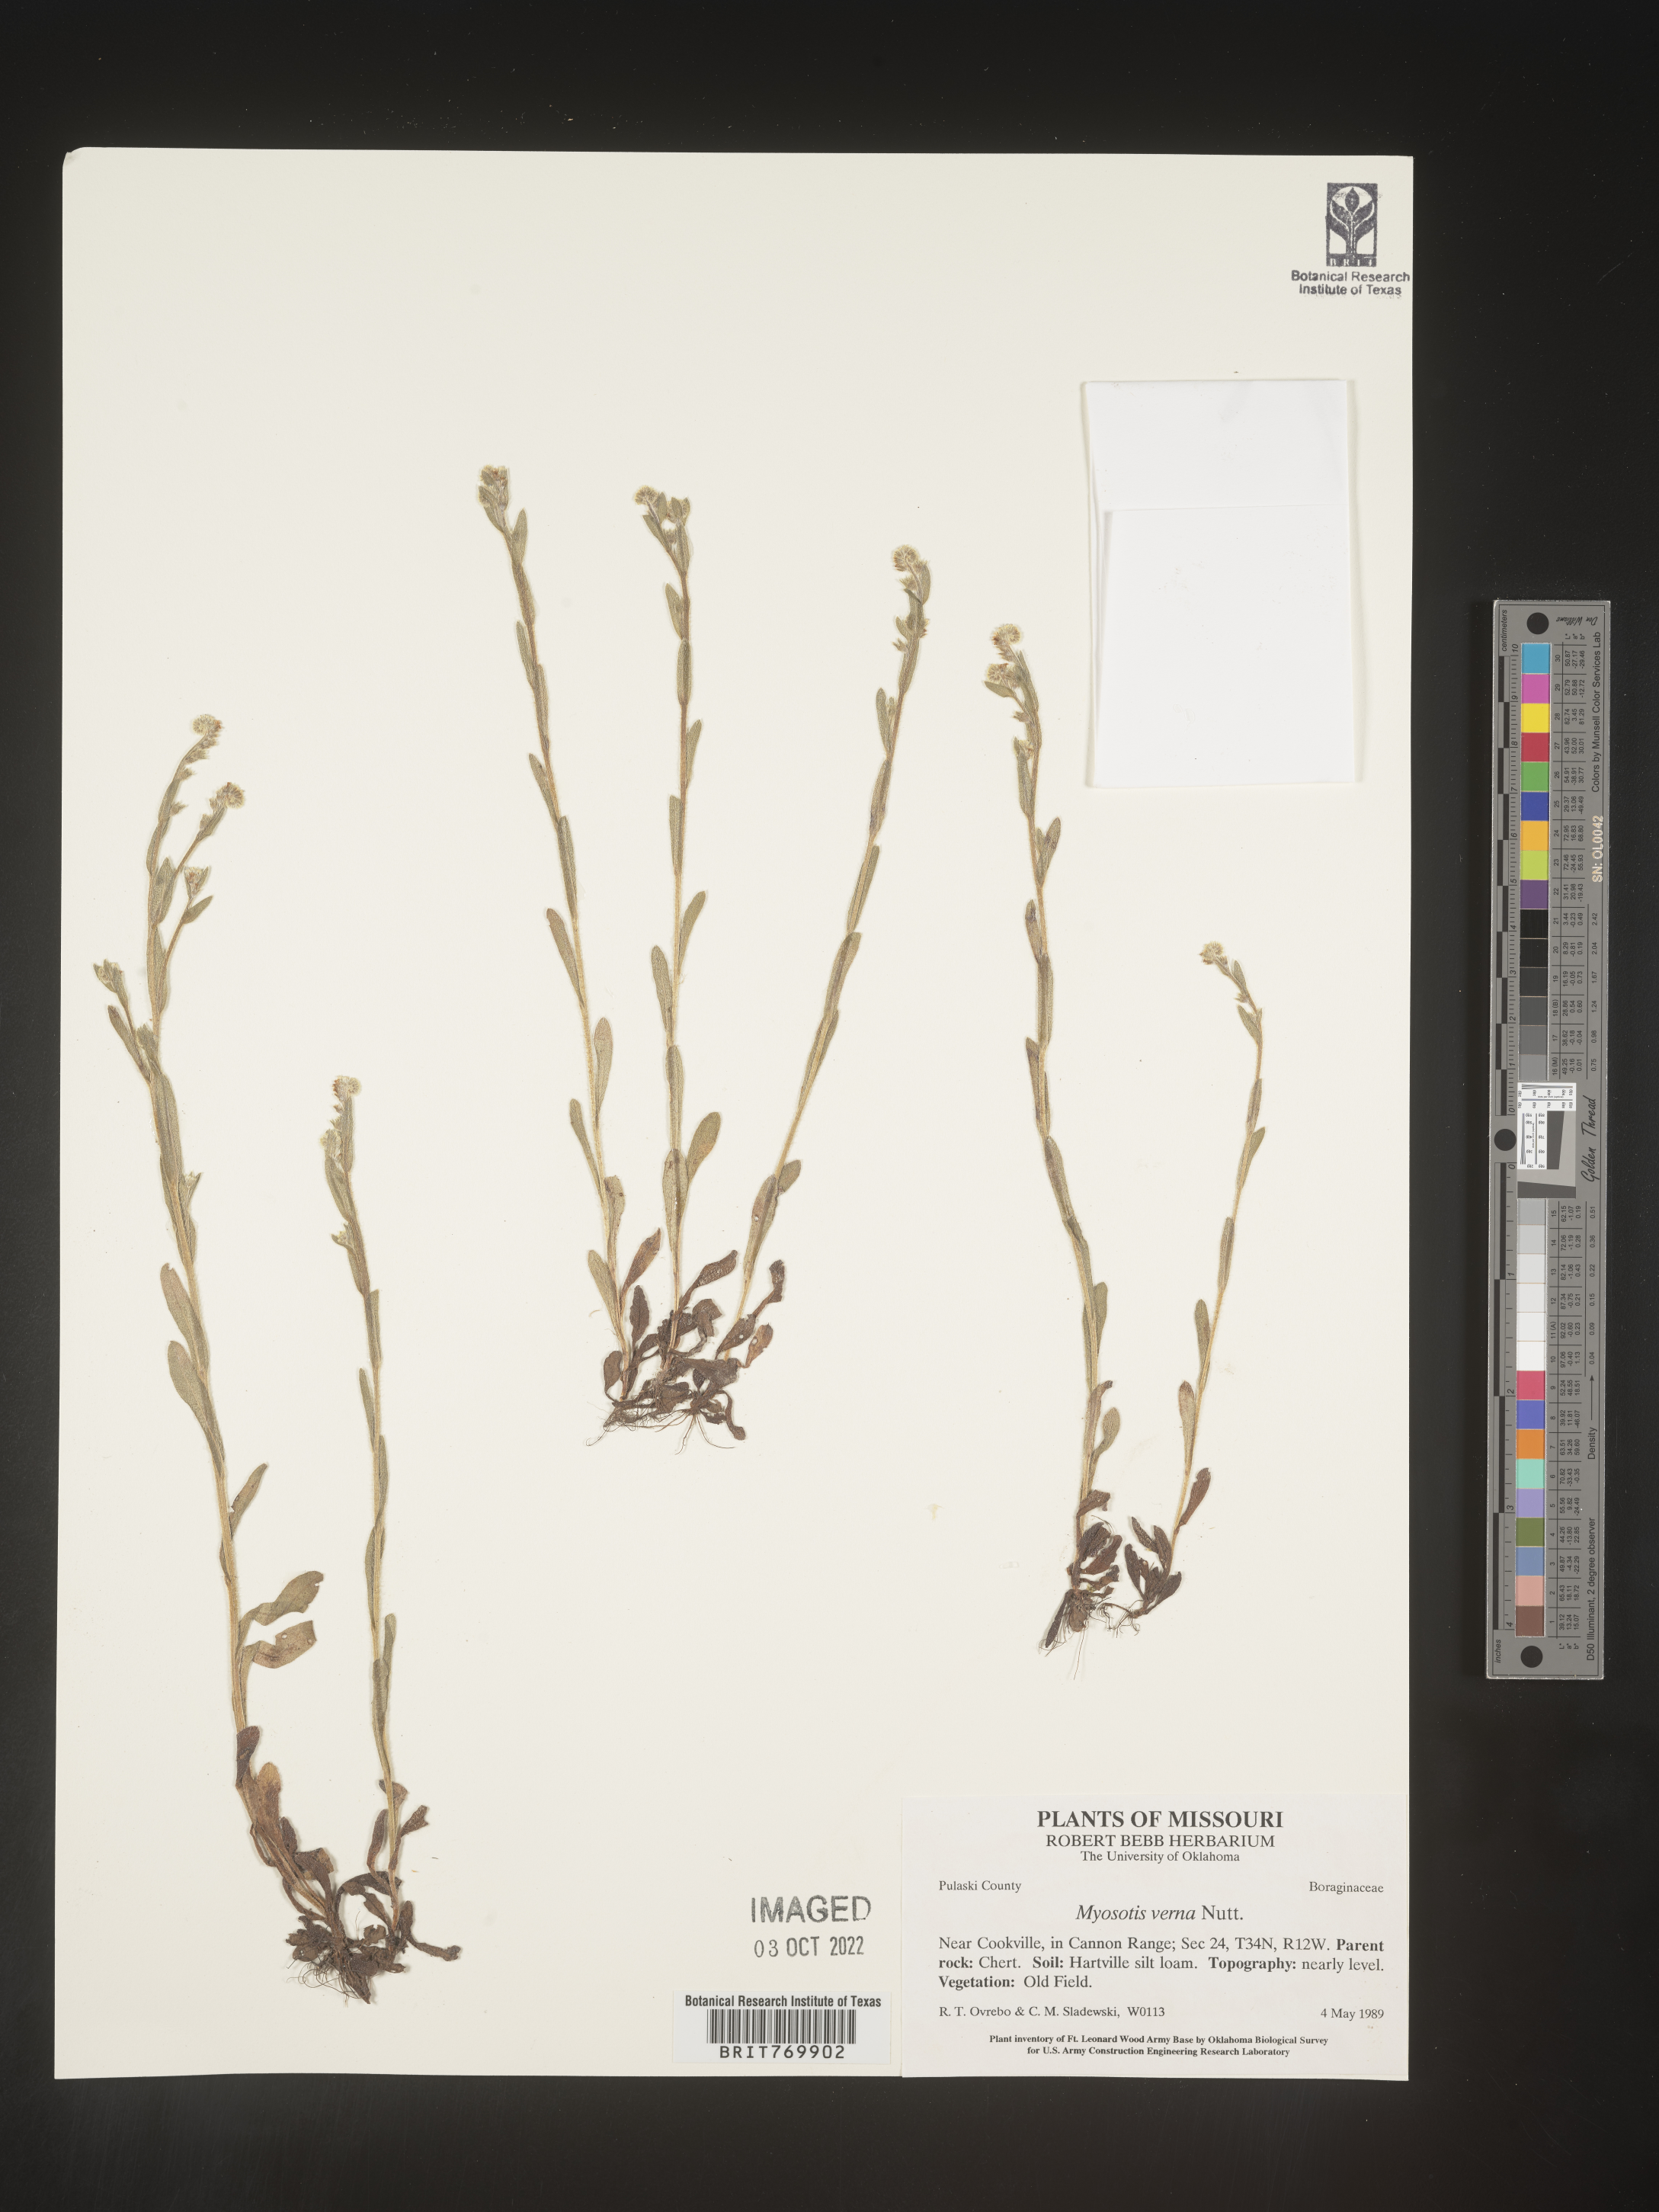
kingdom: Plantae
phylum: Tracheophyta
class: Magnoliopsida
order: Boraginales
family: Boraginaceae
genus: Myosotis
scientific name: Myosotis verna
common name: Early forget-me-not
